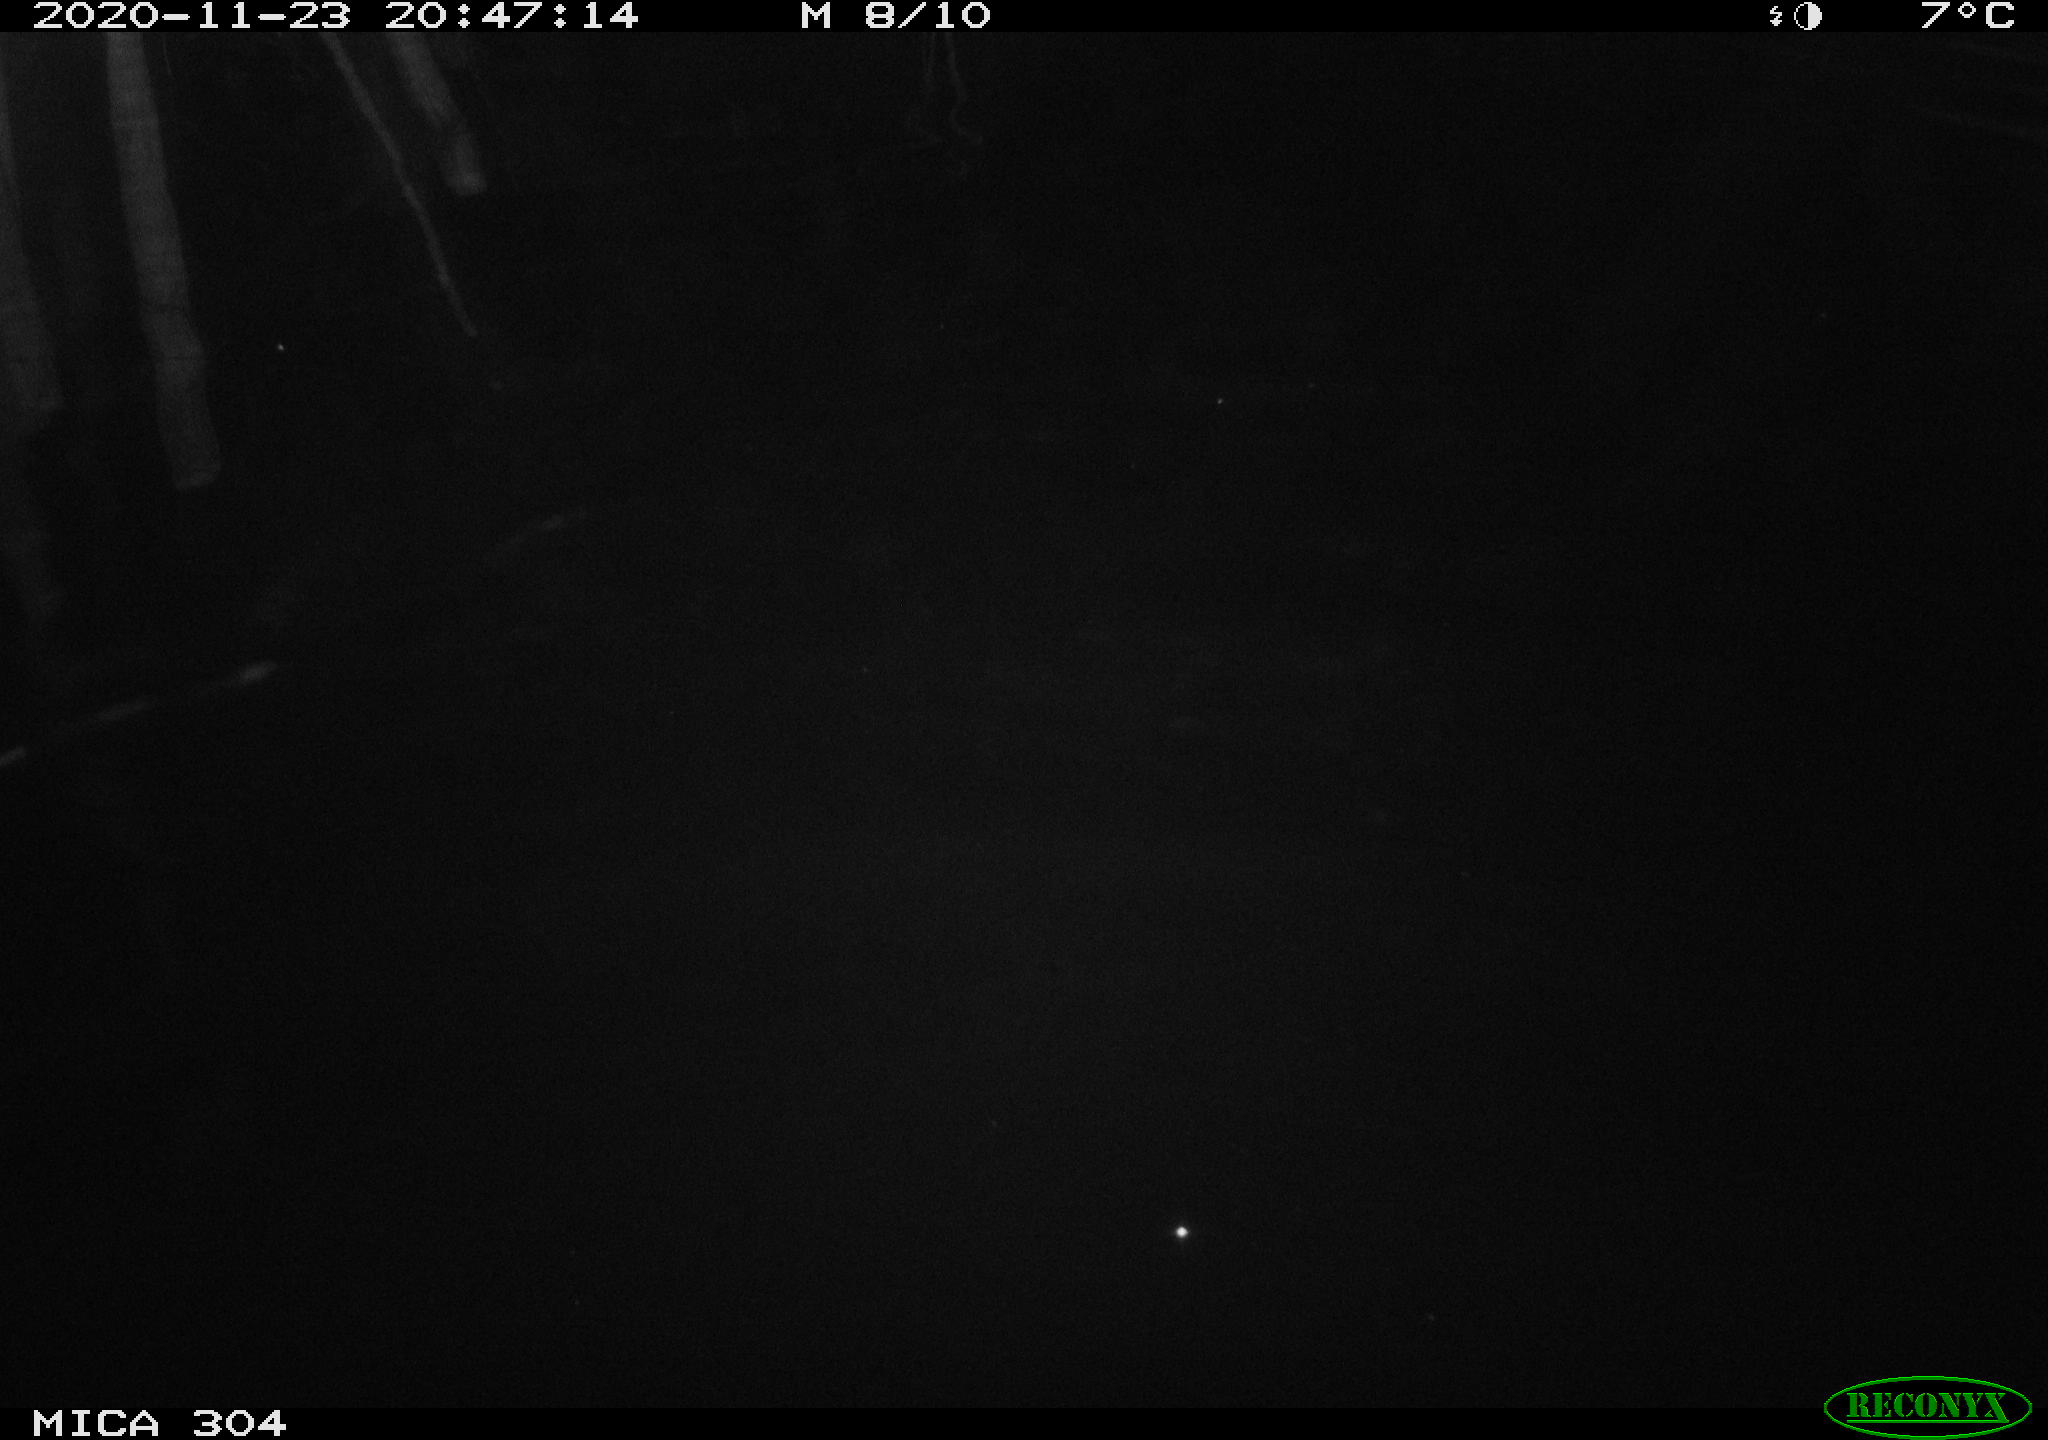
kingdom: Animalia
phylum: Chordata
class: Aves
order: Anseriformes
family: Anatidae
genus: Anas
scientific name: Anas platyrhynchos
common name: Mallard
